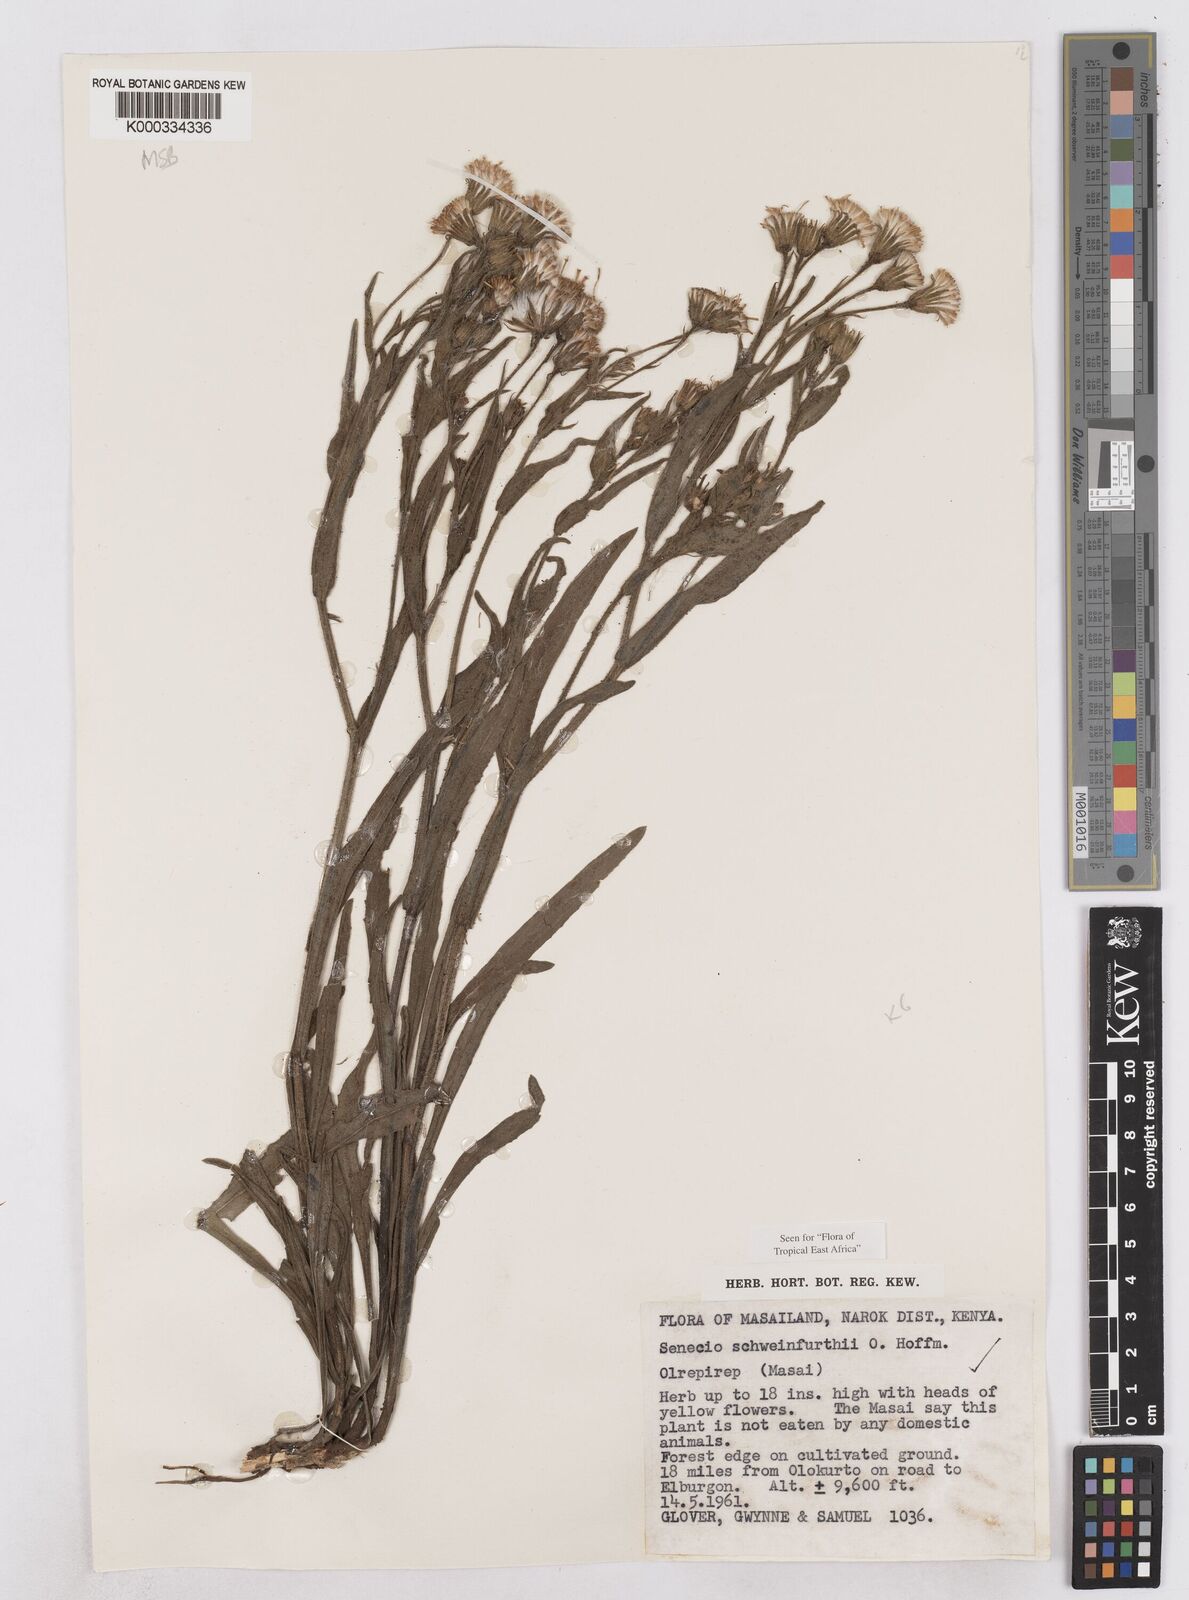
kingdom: Plantae
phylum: Tracheophyta
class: Magnoliopsida
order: Asterales
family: Asteraceae
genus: Senecio
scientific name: Senecio schweinfurthii
